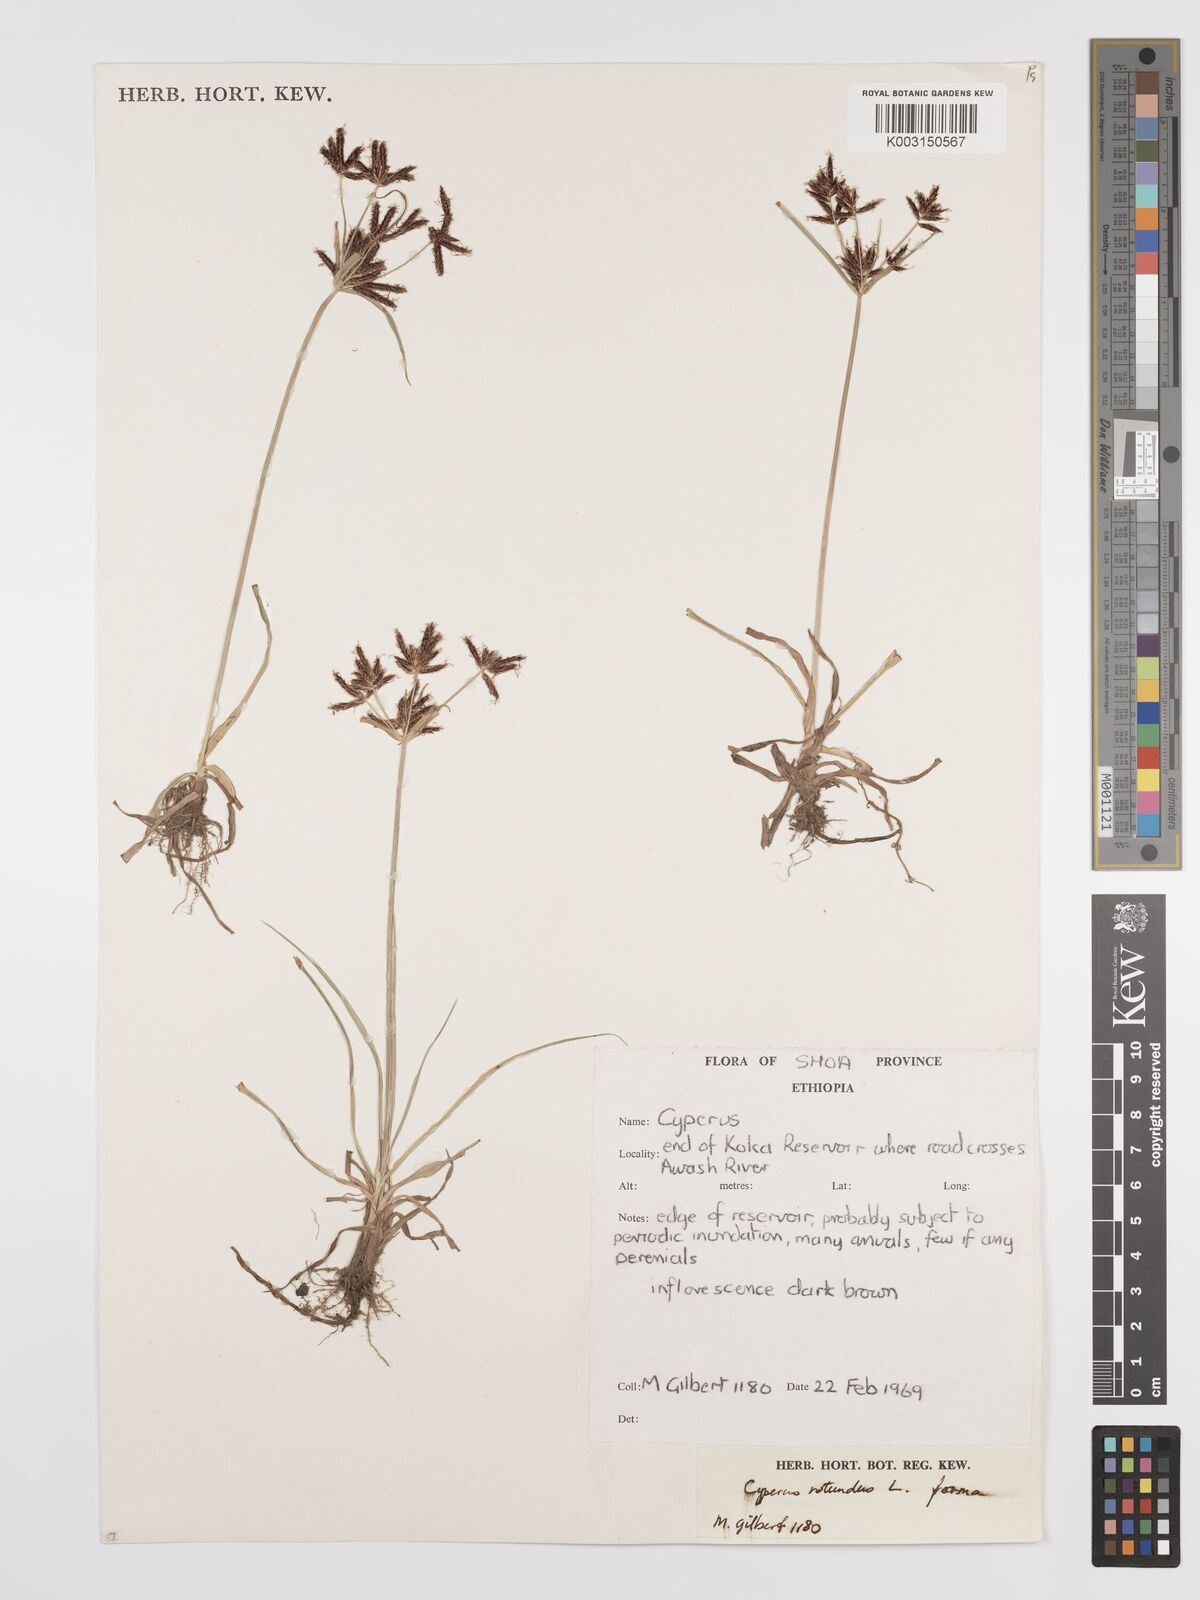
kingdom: Plantae
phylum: Tracheophyta
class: Liliopsida
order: Poales
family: Cyperaceae
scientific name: Cyperaceae
